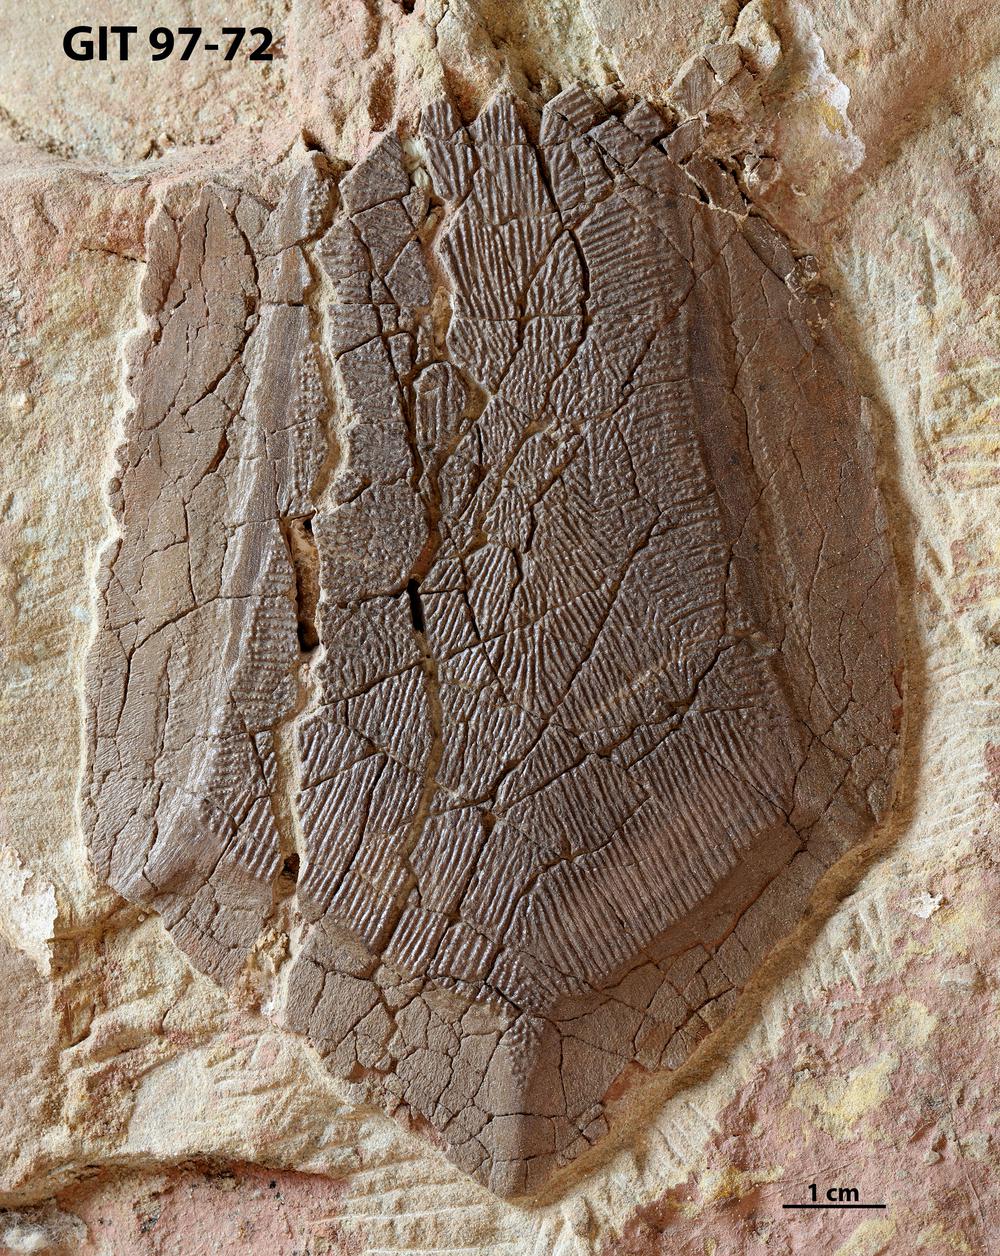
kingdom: Animalia
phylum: Chordata
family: Holonematidae
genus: Holonema
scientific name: Holonema
